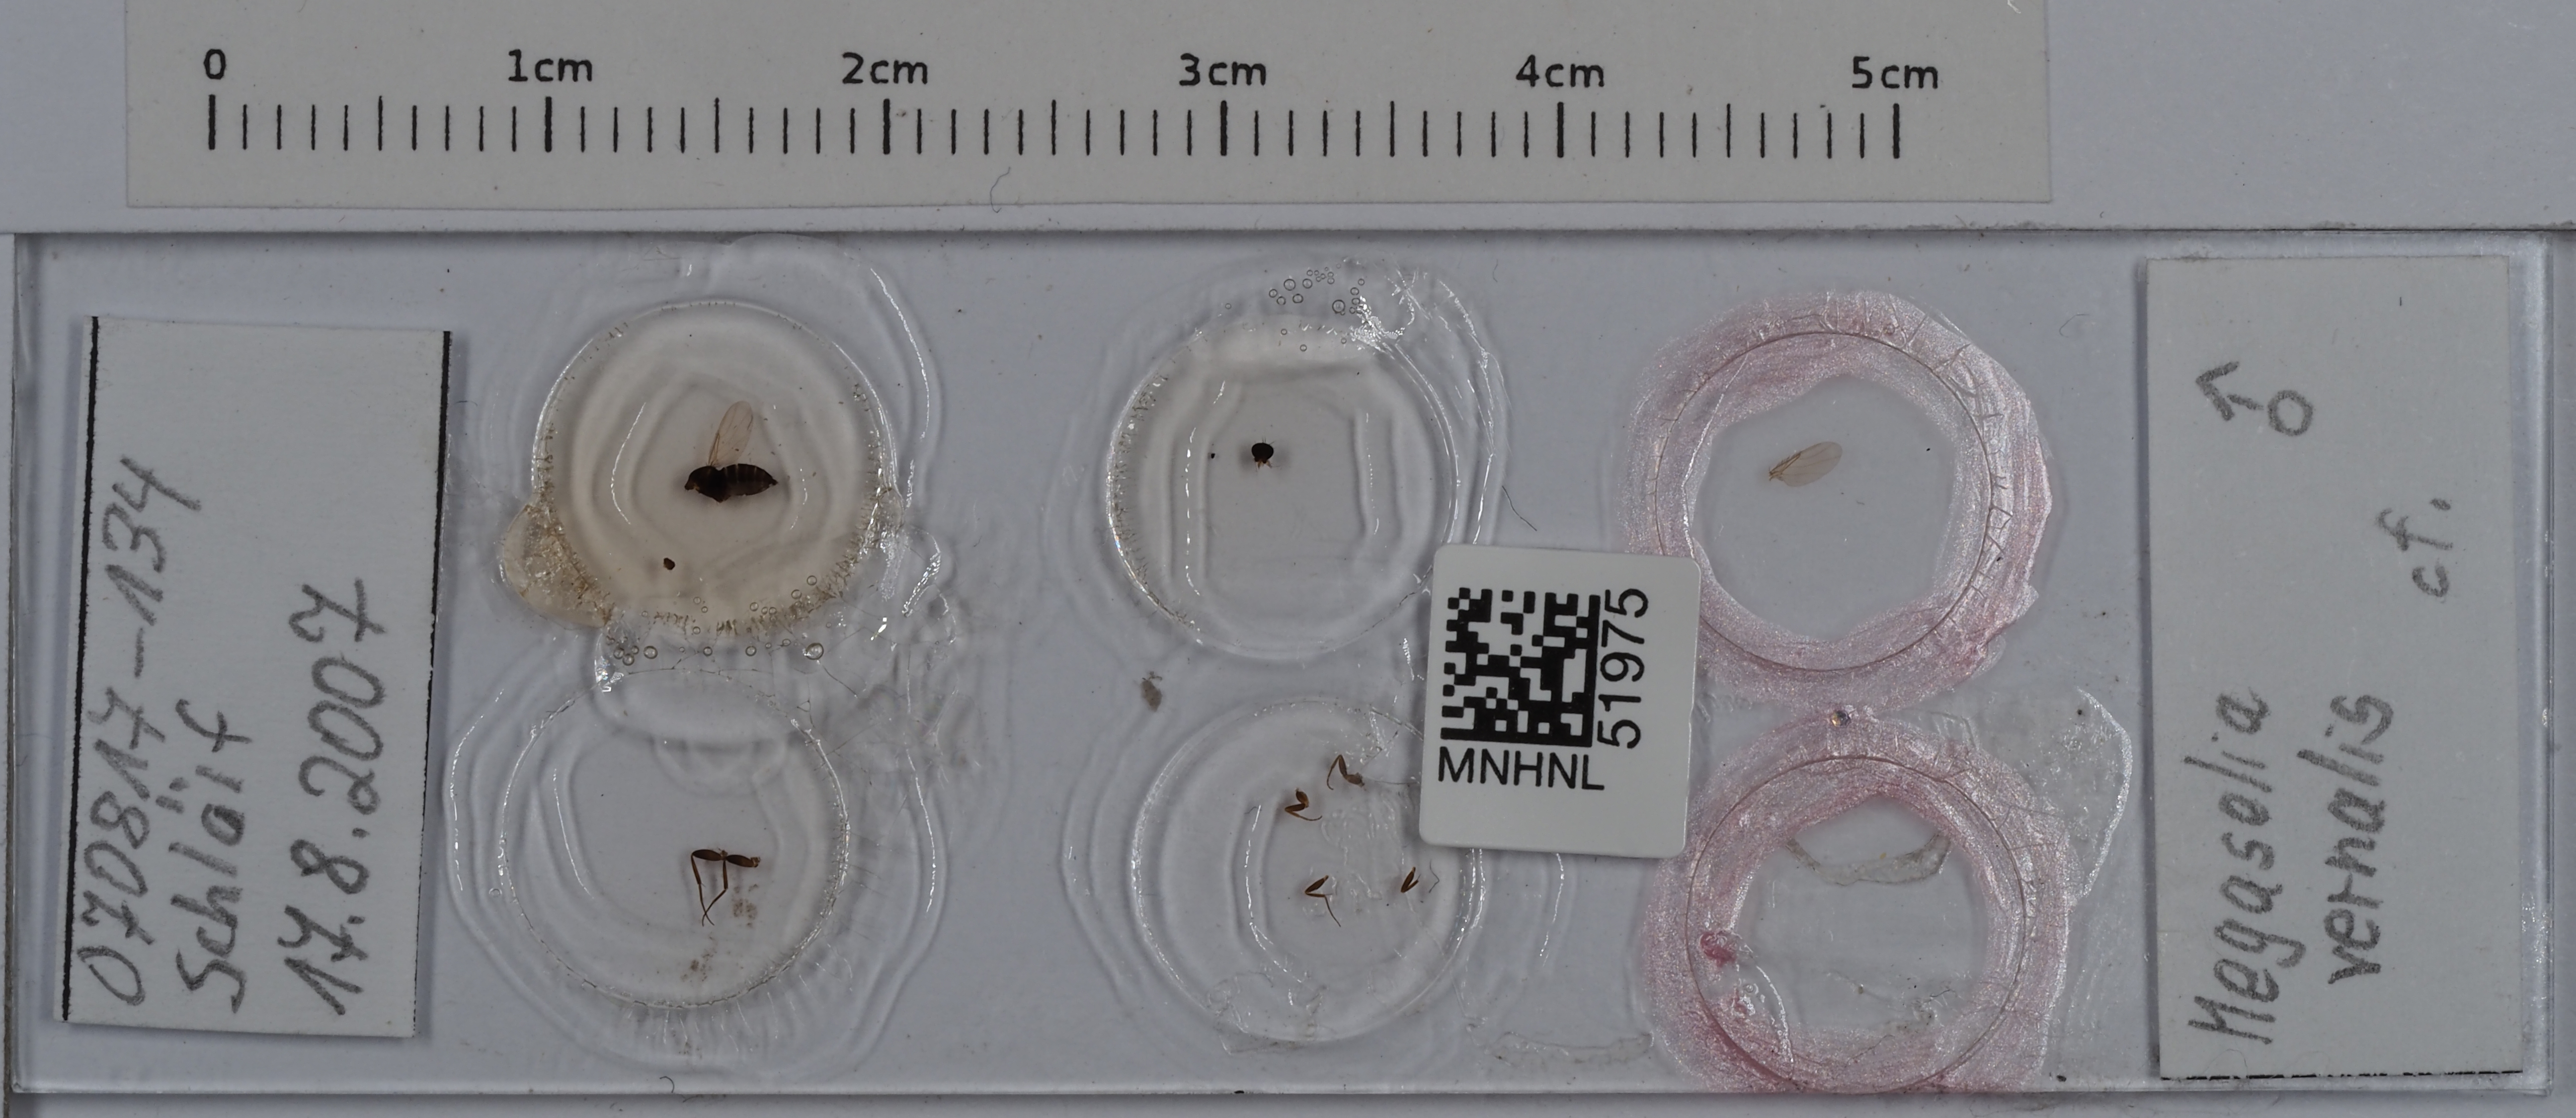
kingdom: Animalia
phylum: Arthropoda
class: Insecta
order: Diptera
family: Phoridae
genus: Megaselia
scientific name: Megaselia vernalis
